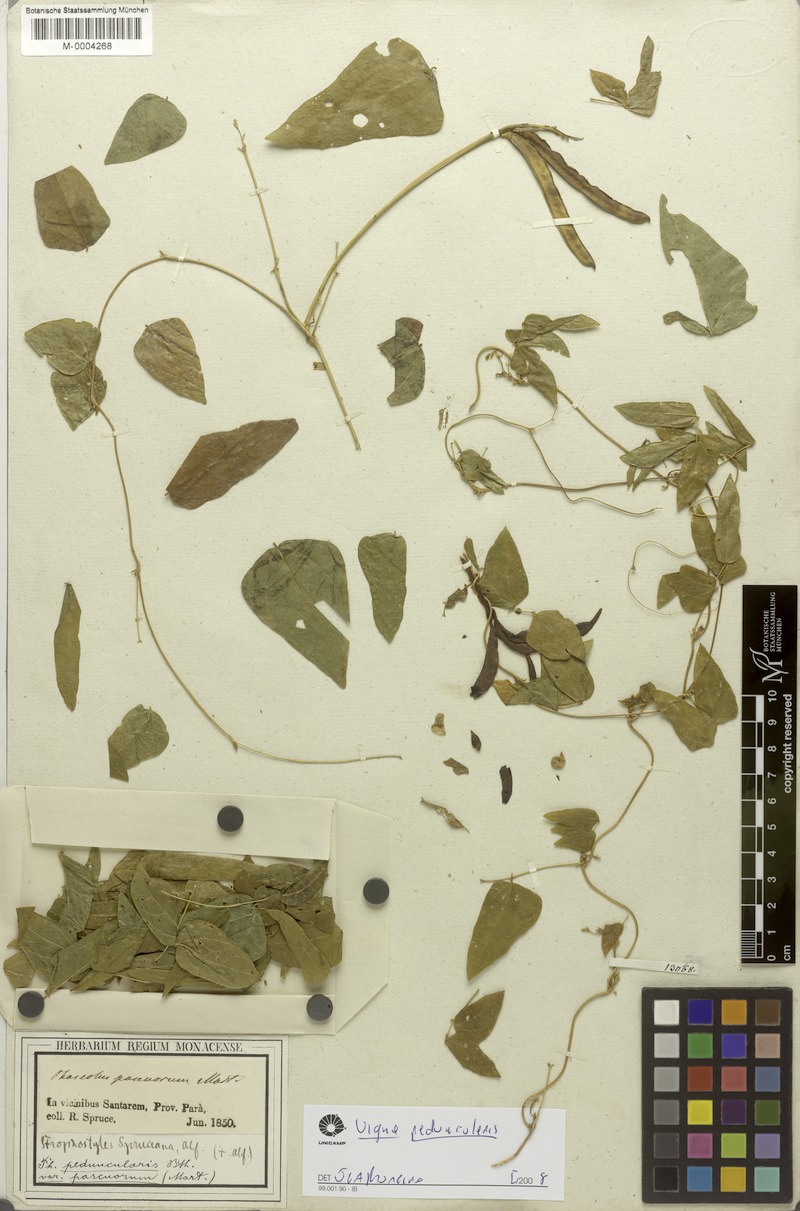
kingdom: Plantae
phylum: Tracheophyta
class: Magnoliopsida
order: Fabales
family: Fabaceae
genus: Ancistrotropis
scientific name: Ancistrotropis peduncularis
